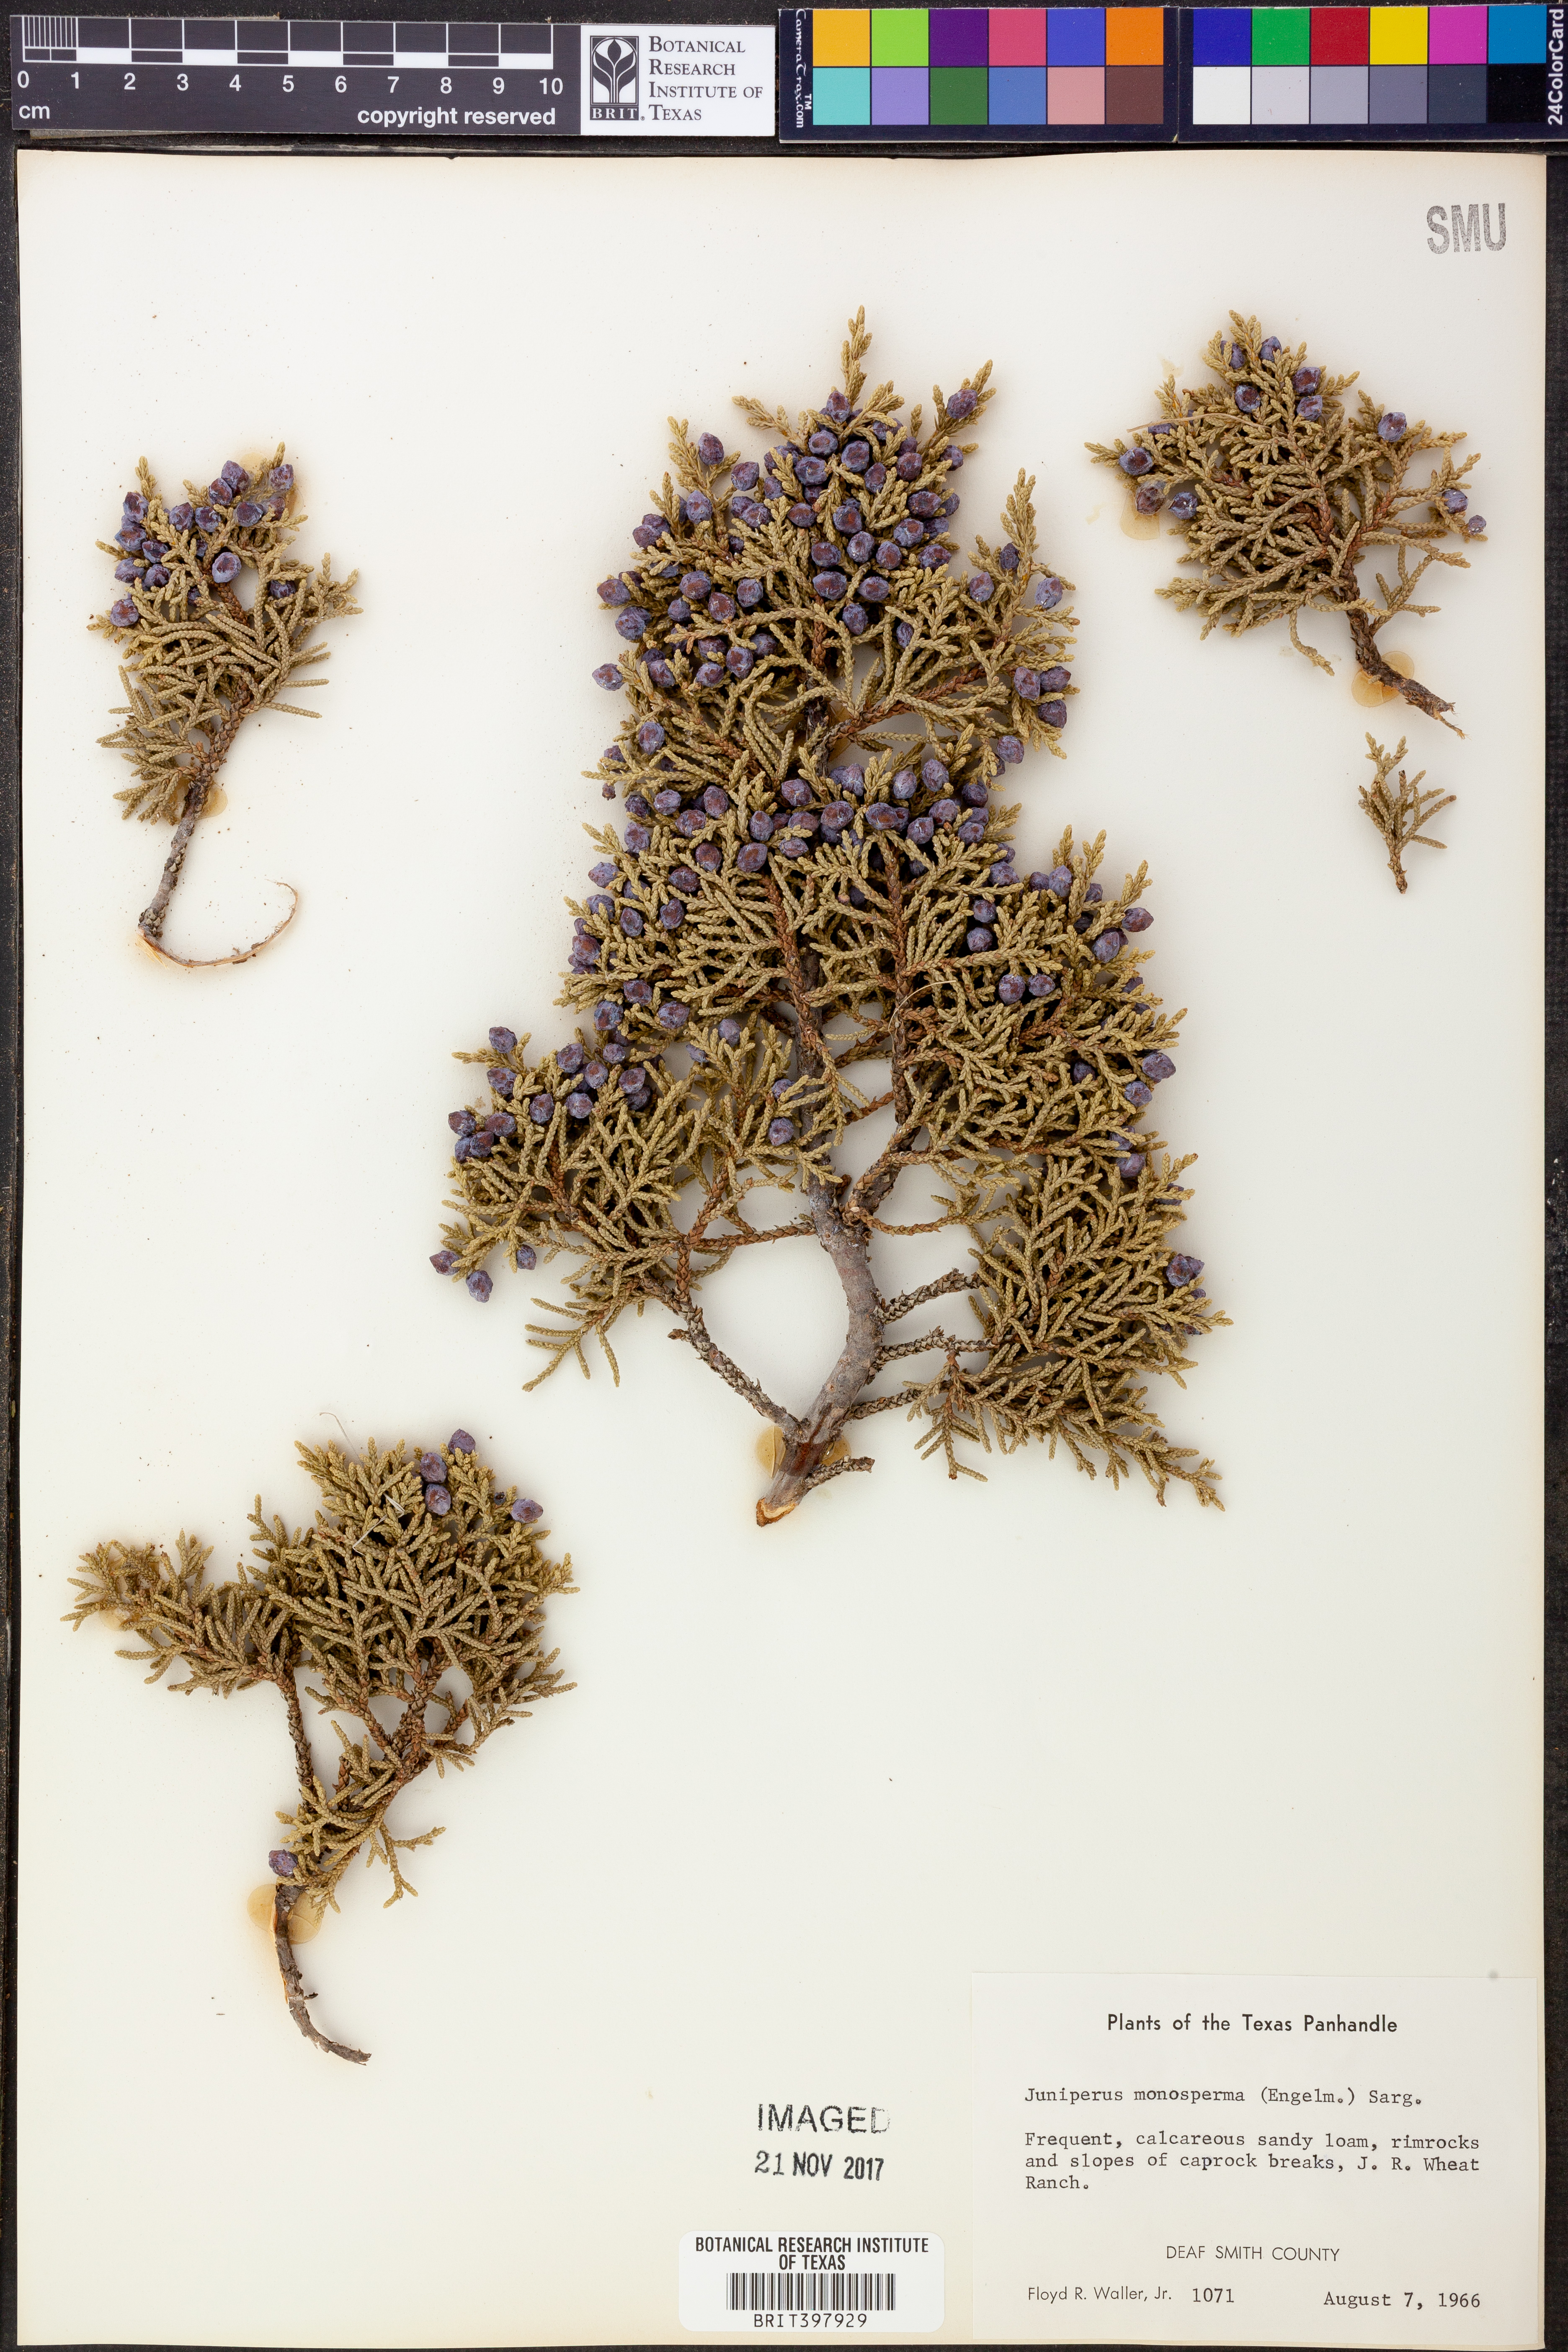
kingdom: Plantae
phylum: Tracheophyta
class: Pinopsida
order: Pinales
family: Cupressaceae
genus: Juniperus
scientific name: Juniperus monosperma
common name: One-seed juniper
